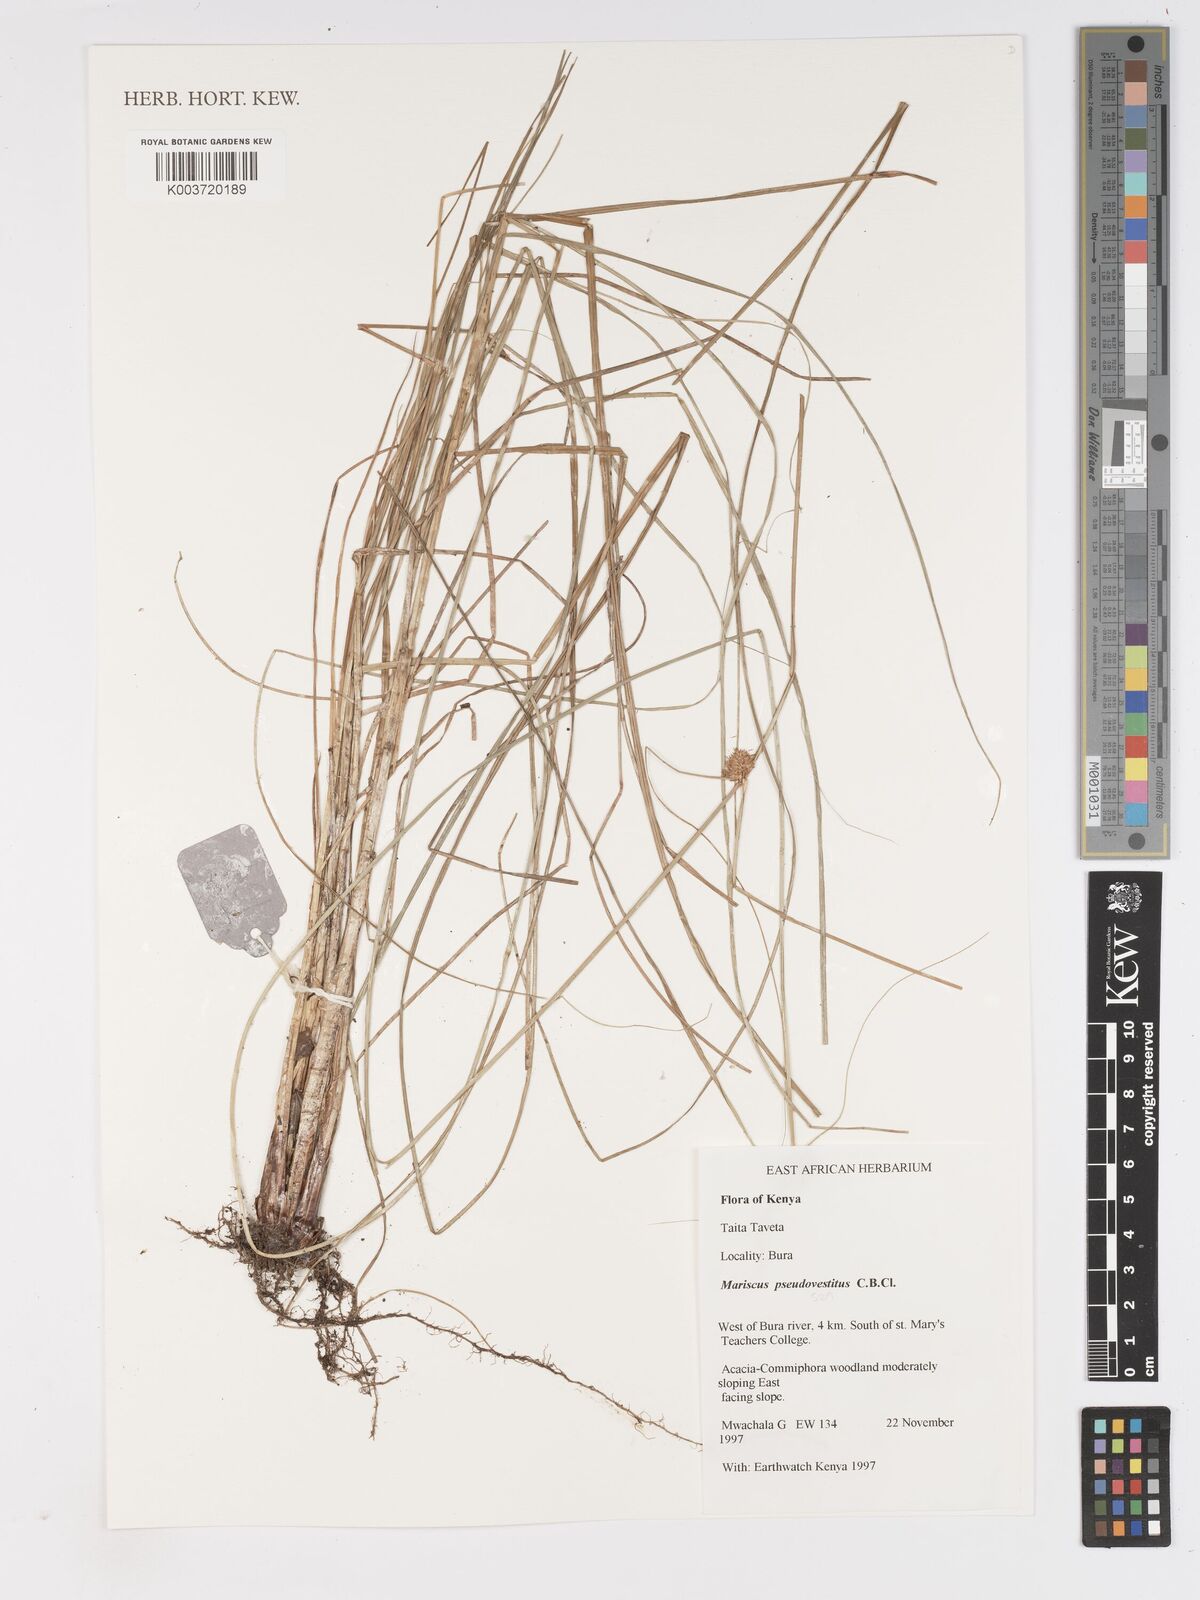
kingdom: Plantae
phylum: Tracheophyta
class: Liliopsida
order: Poales
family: Cyperaceae
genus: Cyperus
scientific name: Cyperus pseudovestitus
